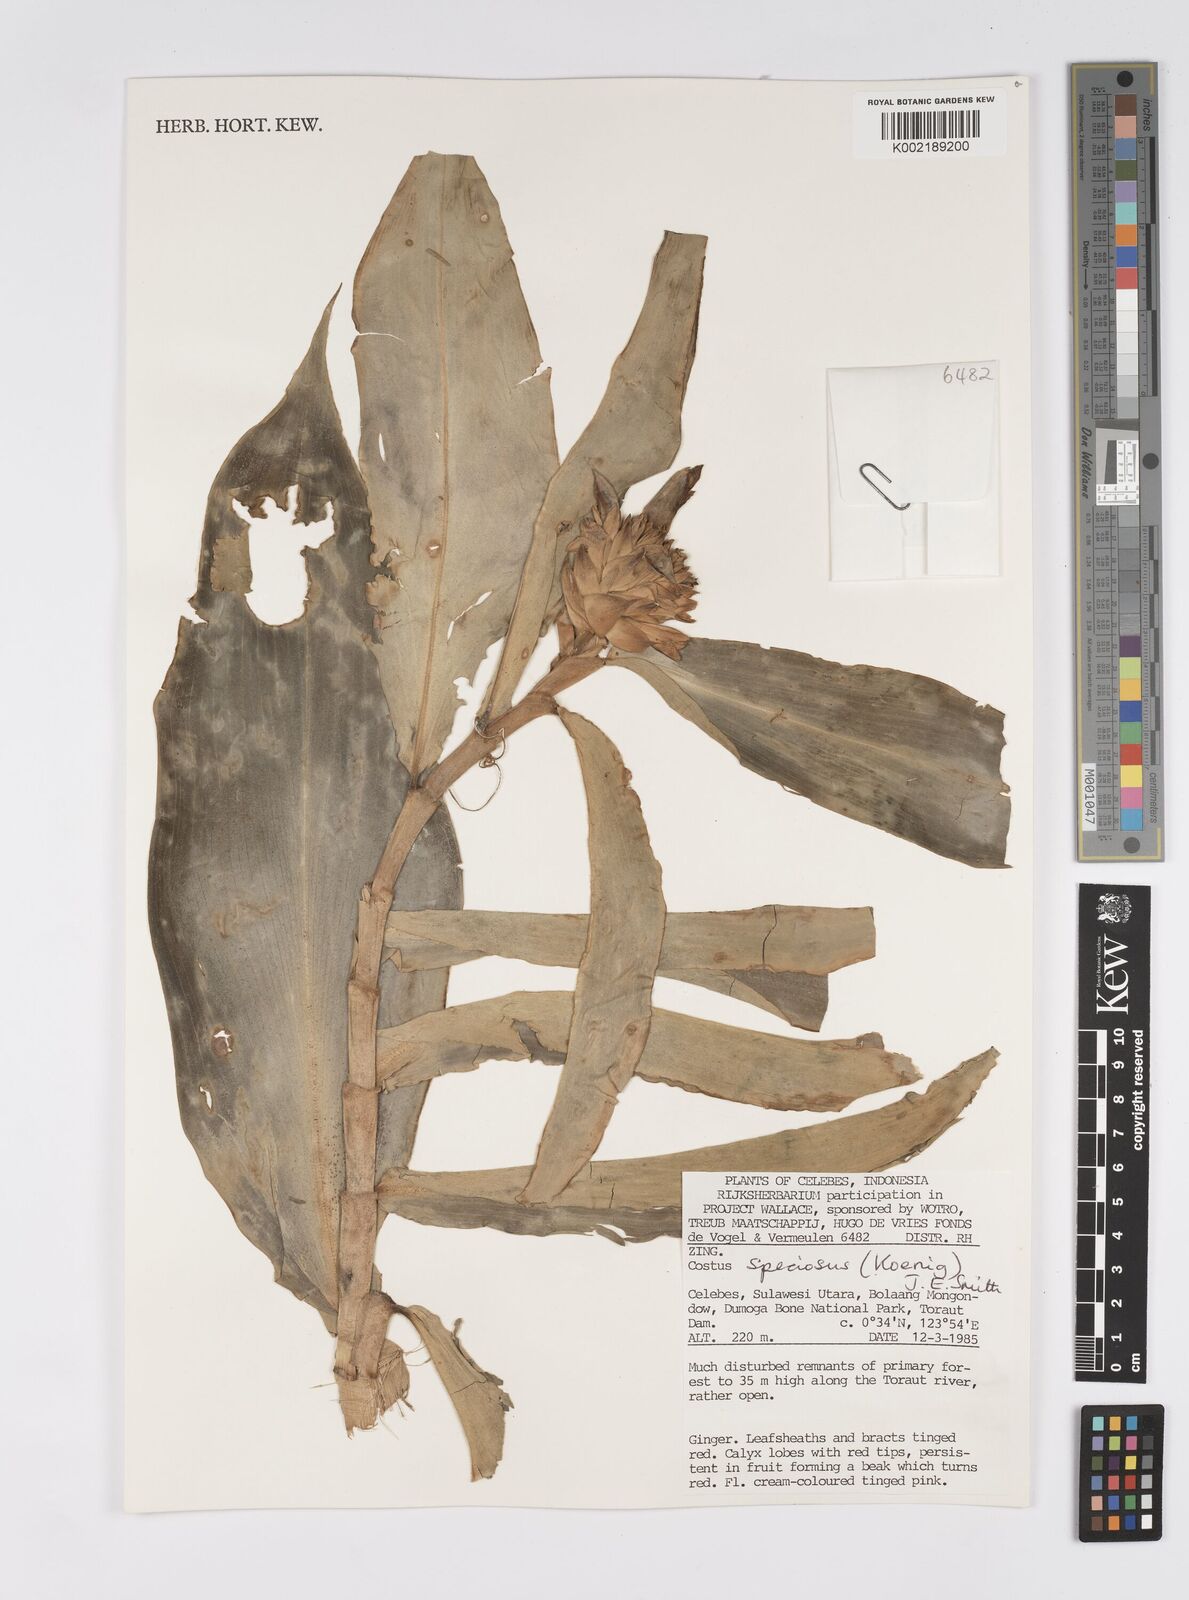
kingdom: Plantae
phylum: Tracheophyta
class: Liliopsida
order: Zingiberales
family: Costaceae
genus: Hellenia
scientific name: Hellenia speciosa
